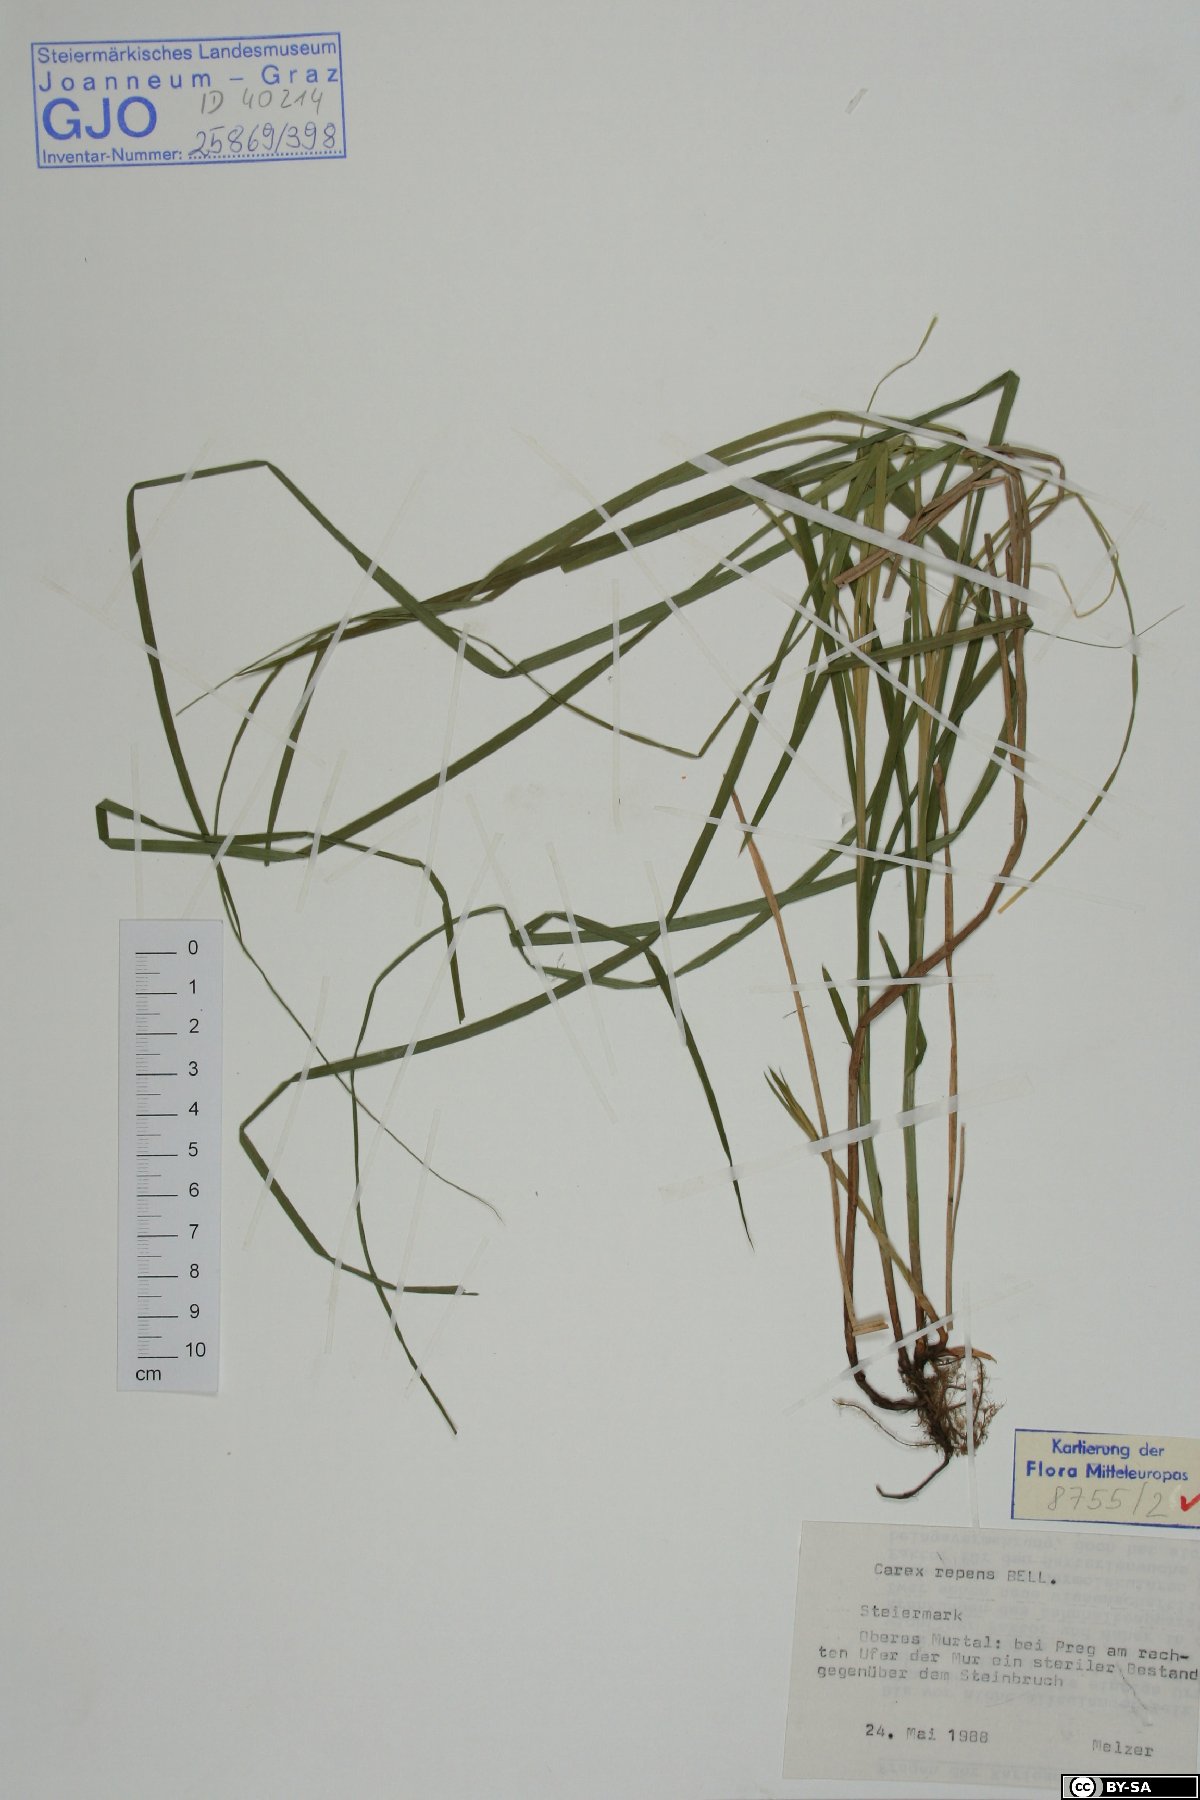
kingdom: Plantae
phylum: Tracheophyta
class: Liliopsida
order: Poales
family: Cyperaceae
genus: Carex
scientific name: Carex repens
